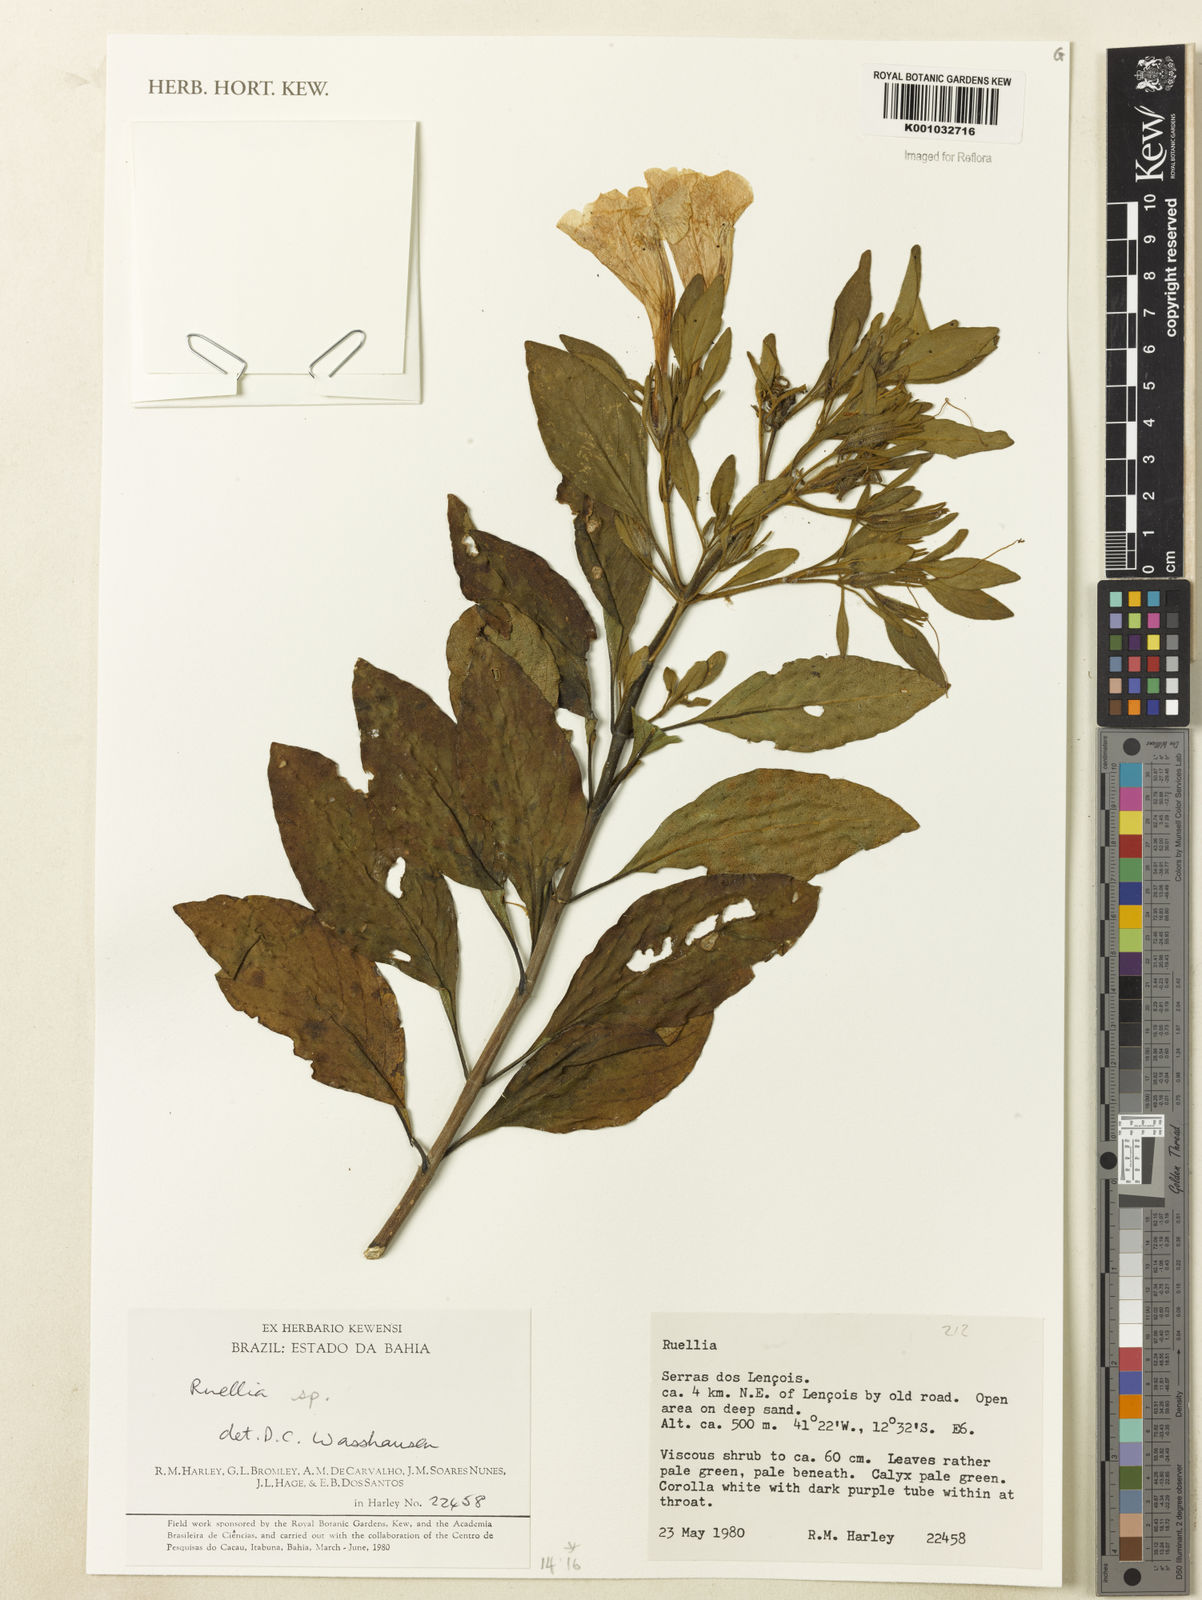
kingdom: Plantae
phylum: Tracheophyta
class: Magnoliopsida
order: Lamiales
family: Acanthaceae
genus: Ruellia
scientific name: Ruellia
